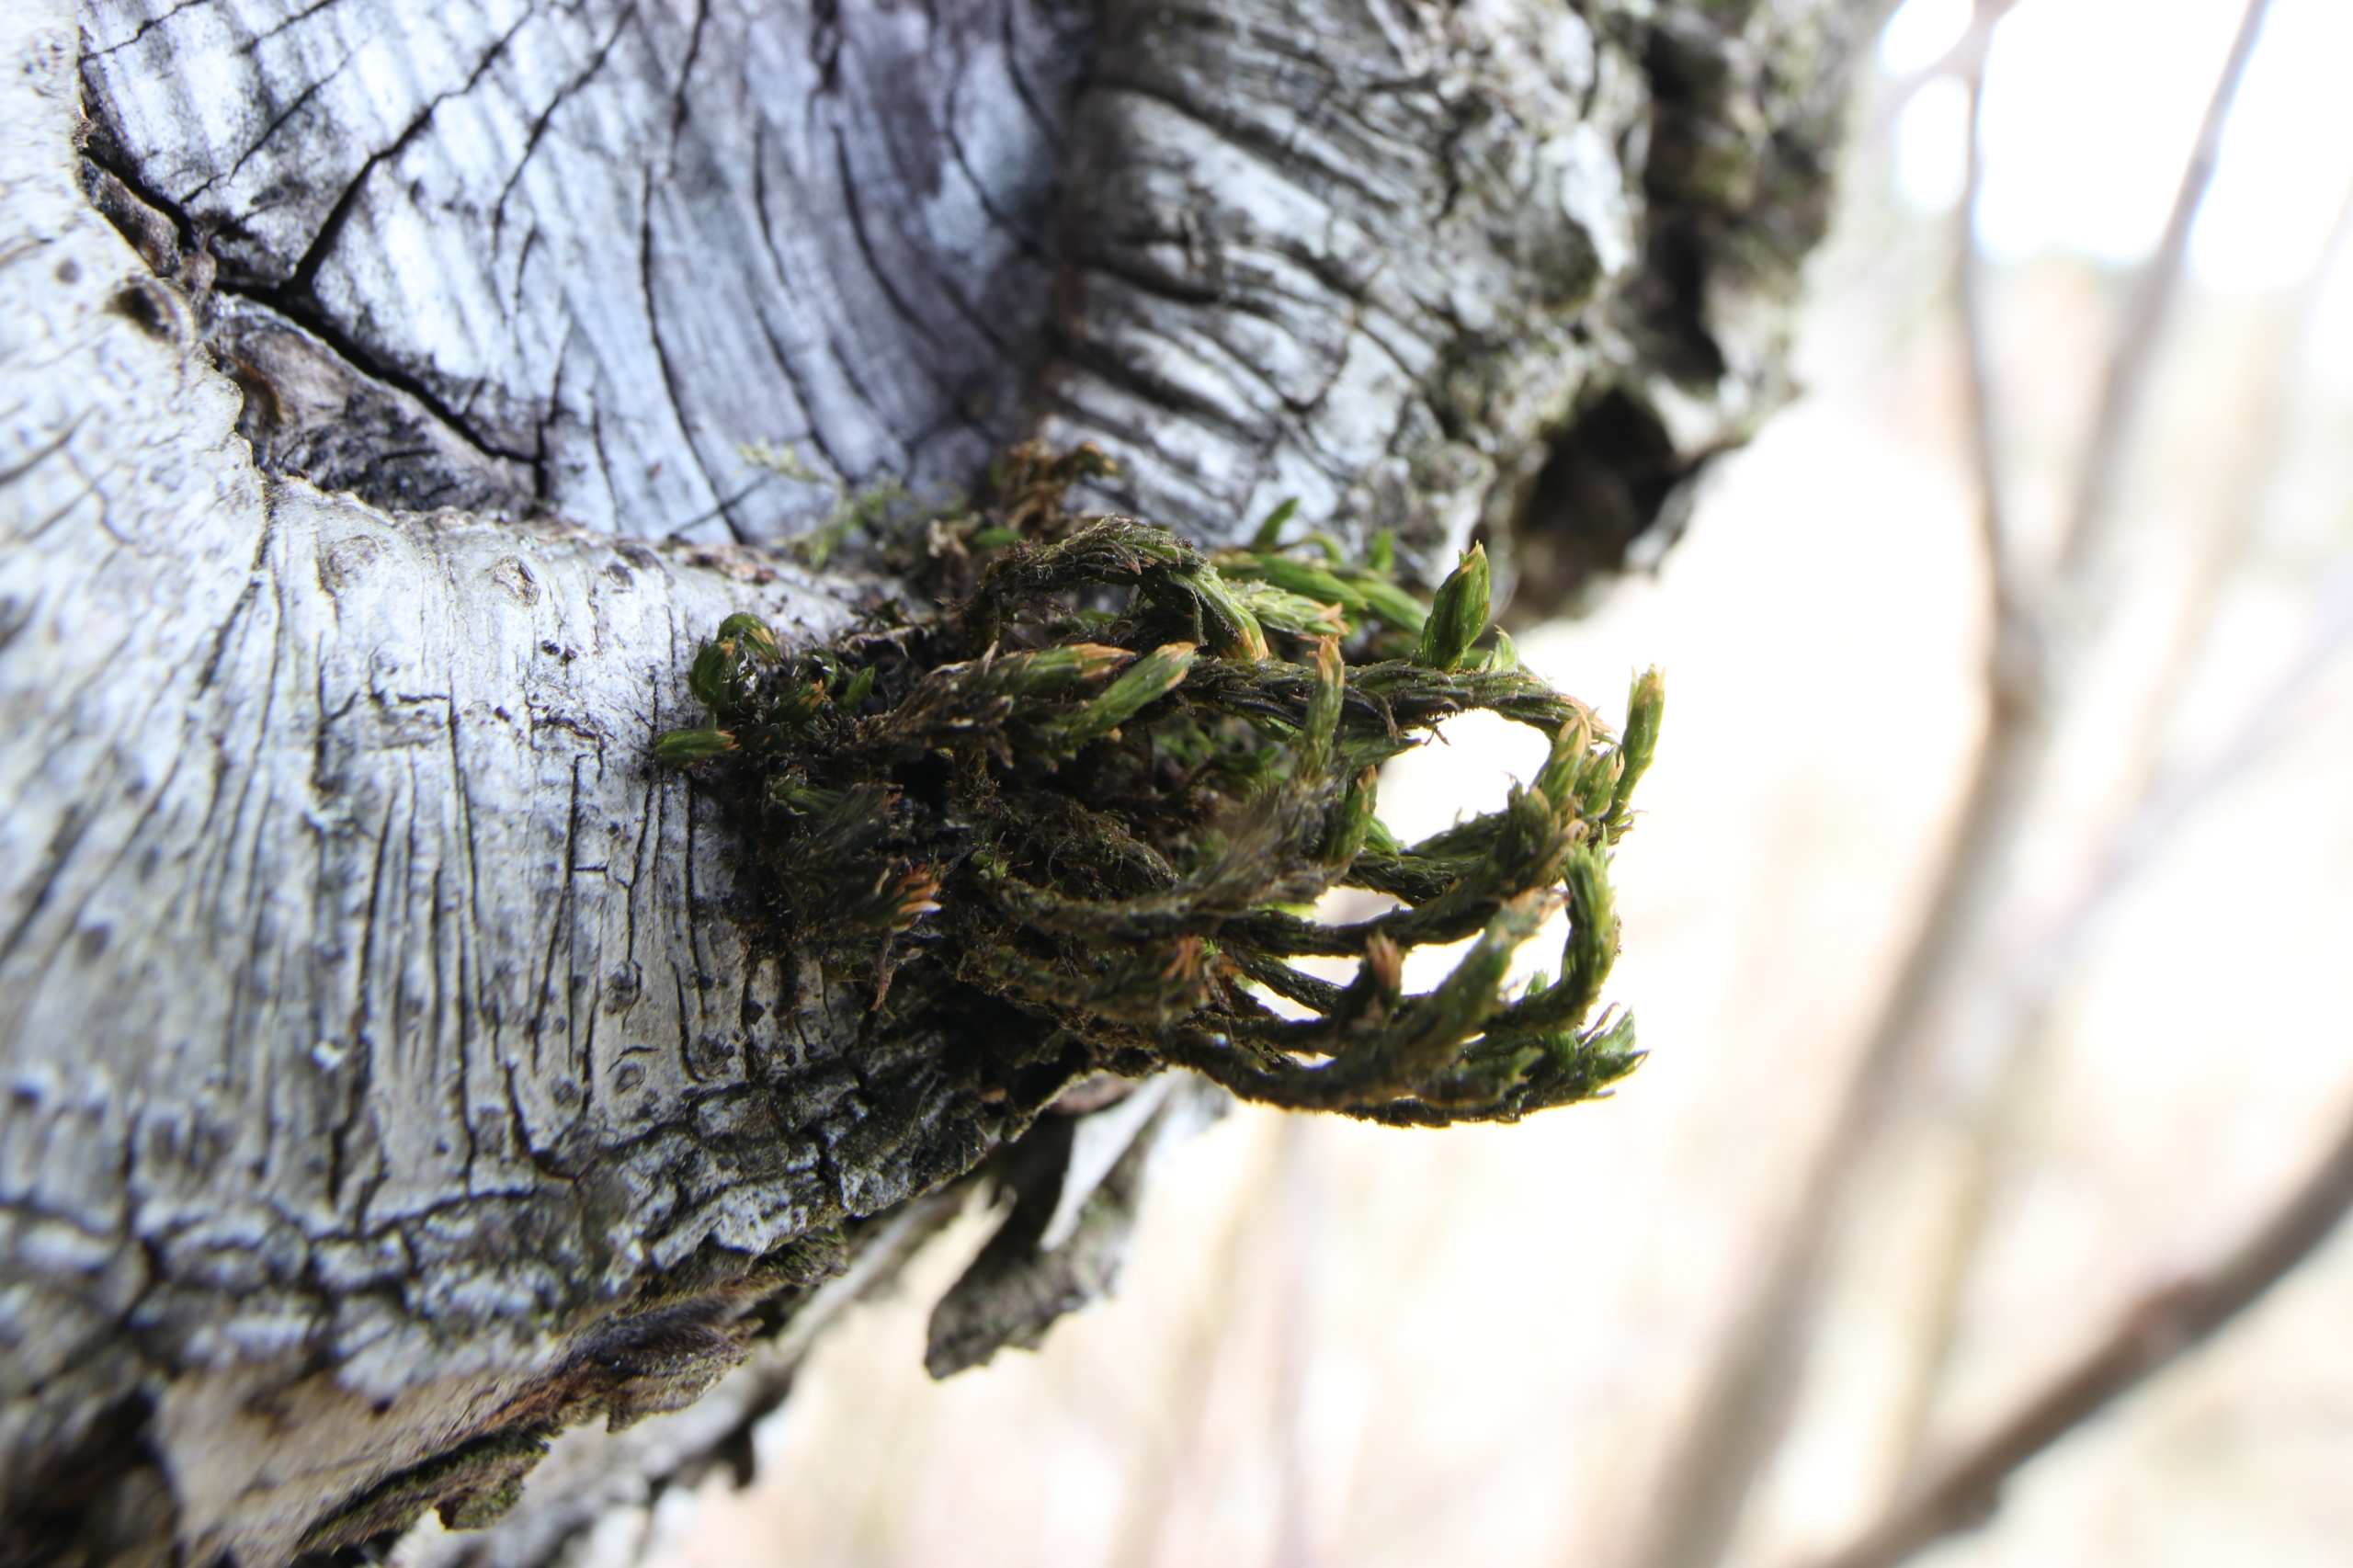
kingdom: Plantae
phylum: Bryophyta
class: Bryopsida
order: Orthotrichales
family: Orthotrichaceae
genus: Pulvigera
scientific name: Pulvigera lyellii
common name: Stor furehætte
